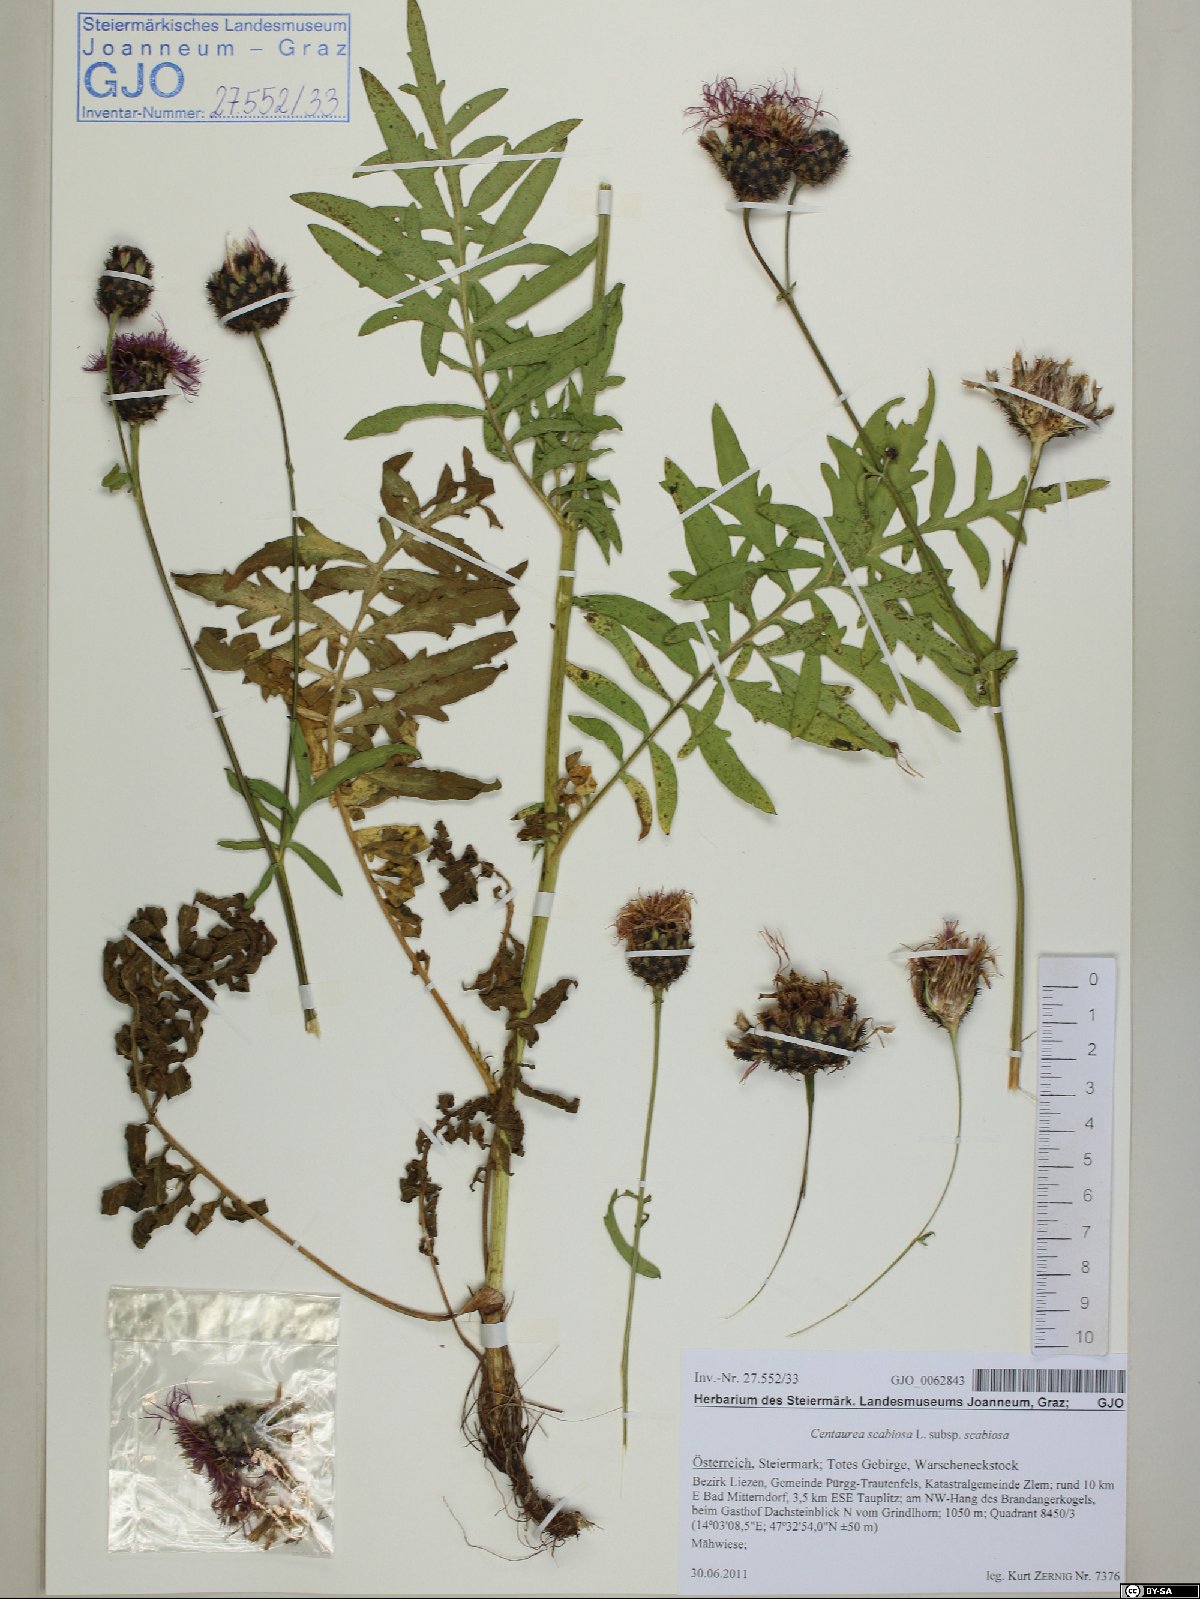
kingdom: Plantae
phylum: Tracheophyta
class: Magnoliopsida
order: Asterales
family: Asteraceae
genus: Centaurea
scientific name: Centaurea scabiosa
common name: Greater knapweed
